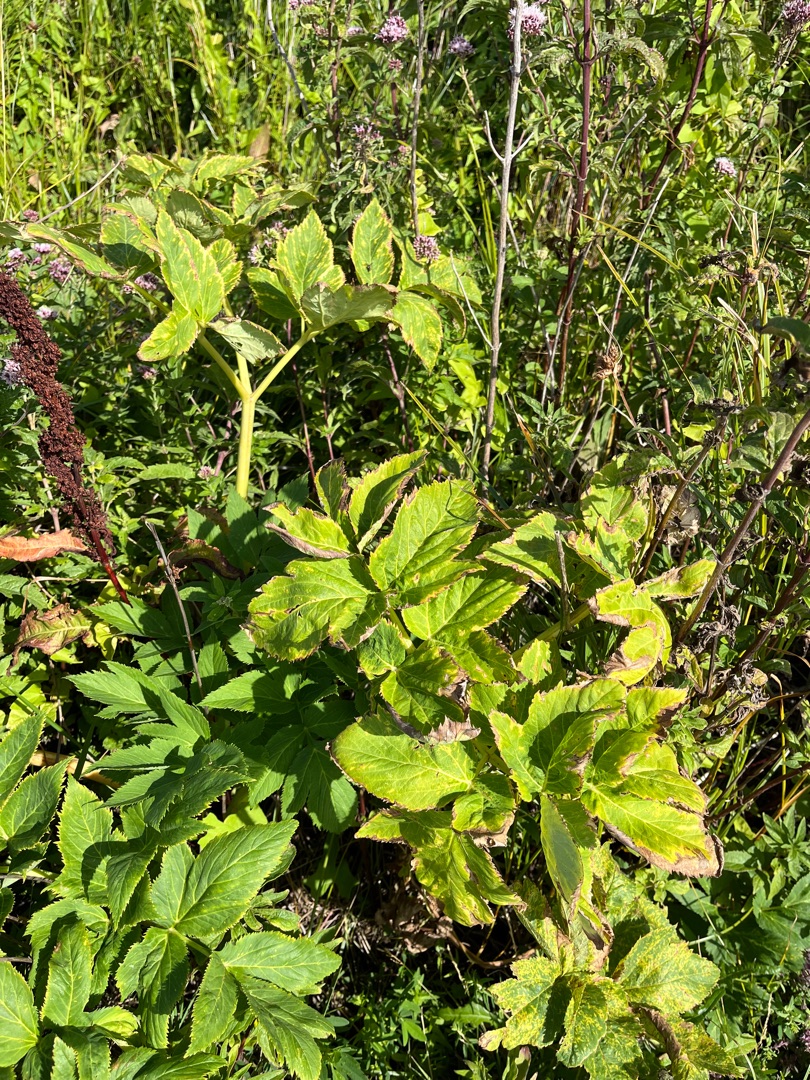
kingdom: Plantae
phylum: Tracheophyta
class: Magnoliopsida
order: Apiales
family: Apiaceae
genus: Angelica
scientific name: Angelica archangelica
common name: Kvan
